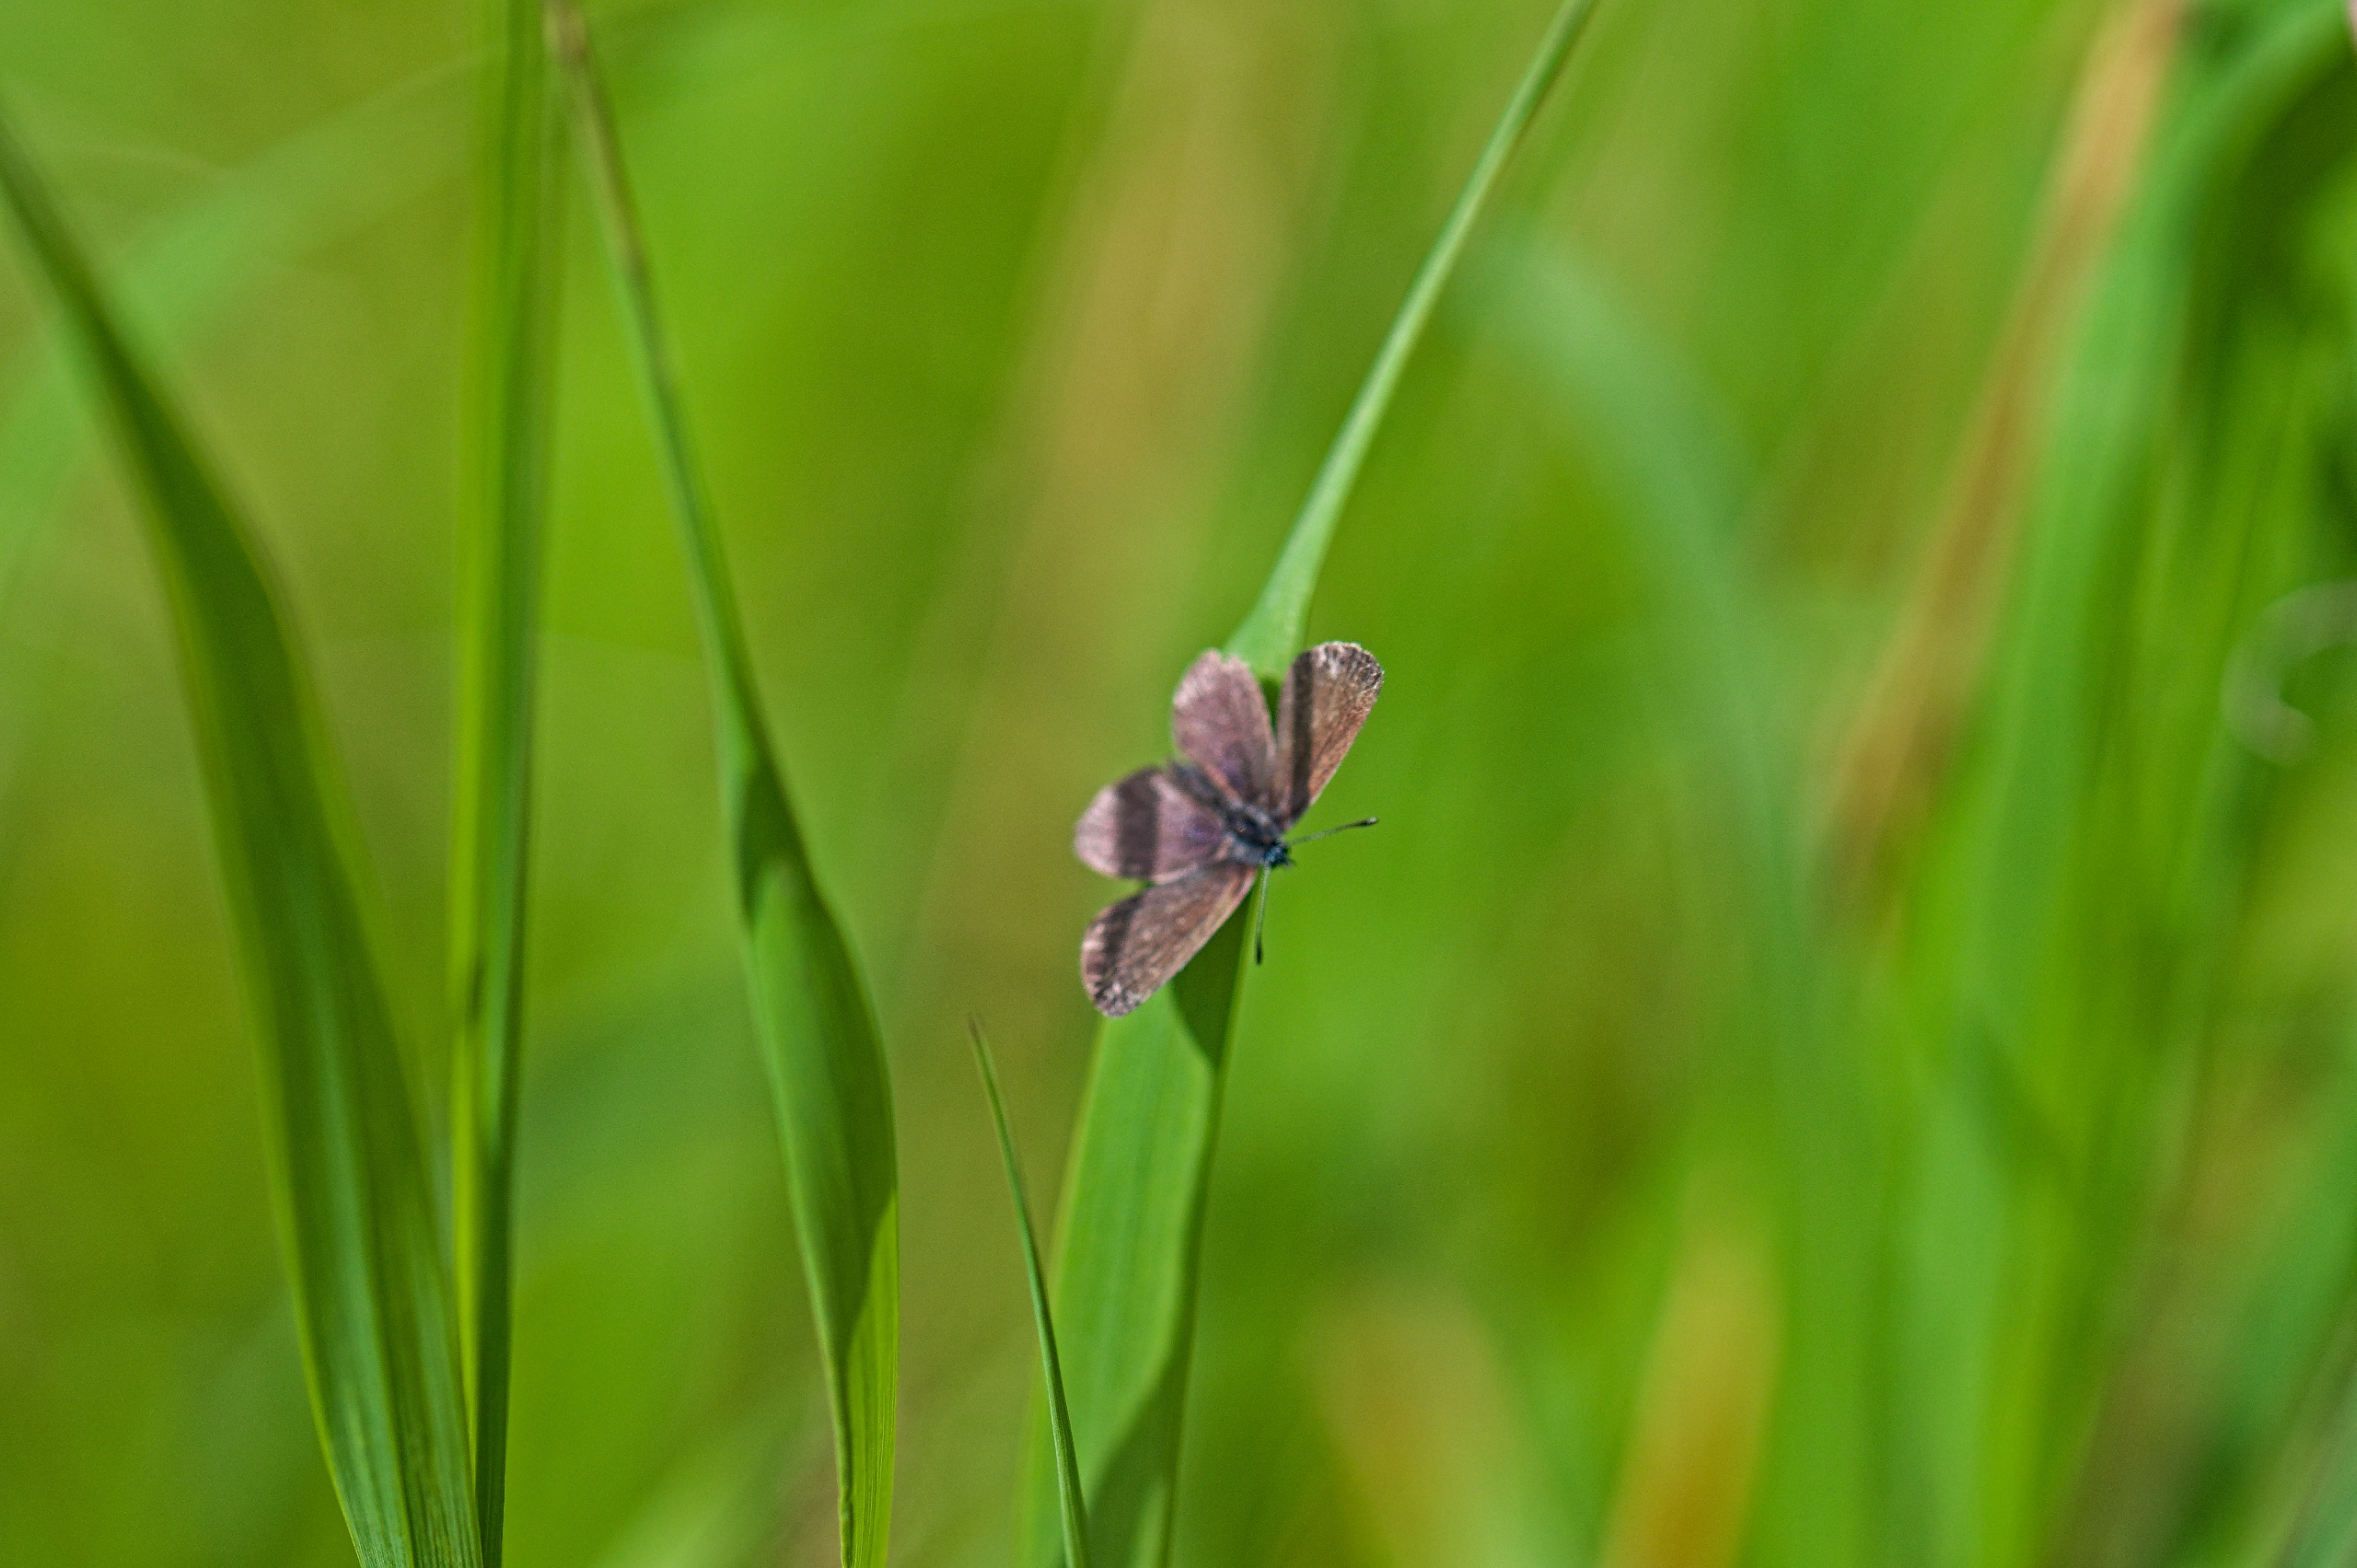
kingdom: Animalia
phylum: Arthropoda
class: Insecta
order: Lepidoptera
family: Lycaenidae
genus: Cupido
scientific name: Cupido minimus
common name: Dværgblåfugl
